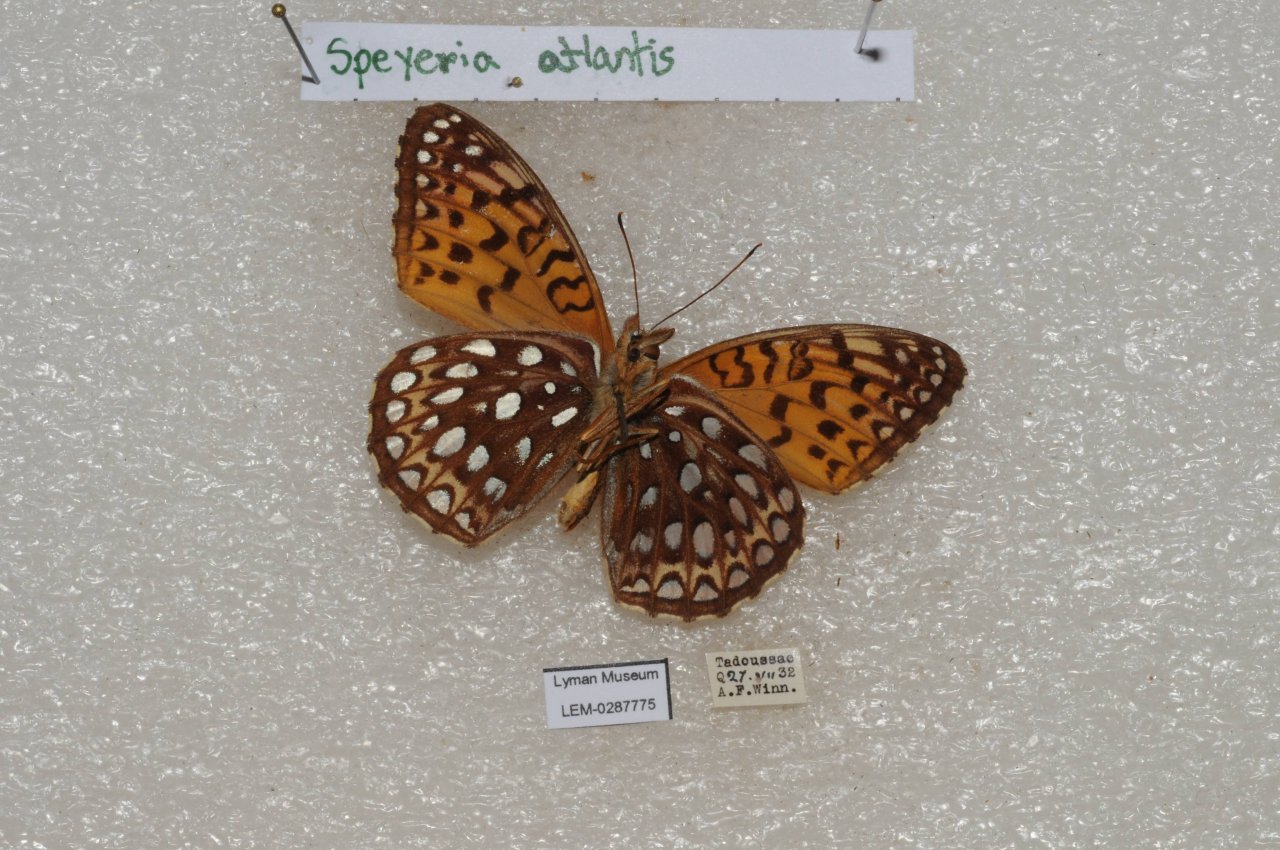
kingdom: Animalia
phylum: Arthropoda
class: Insecta
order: Lepidoptera
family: Nymphalidae
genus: Speyeria
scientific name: Speyeria atlantis
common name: Atlantis Fritillary
